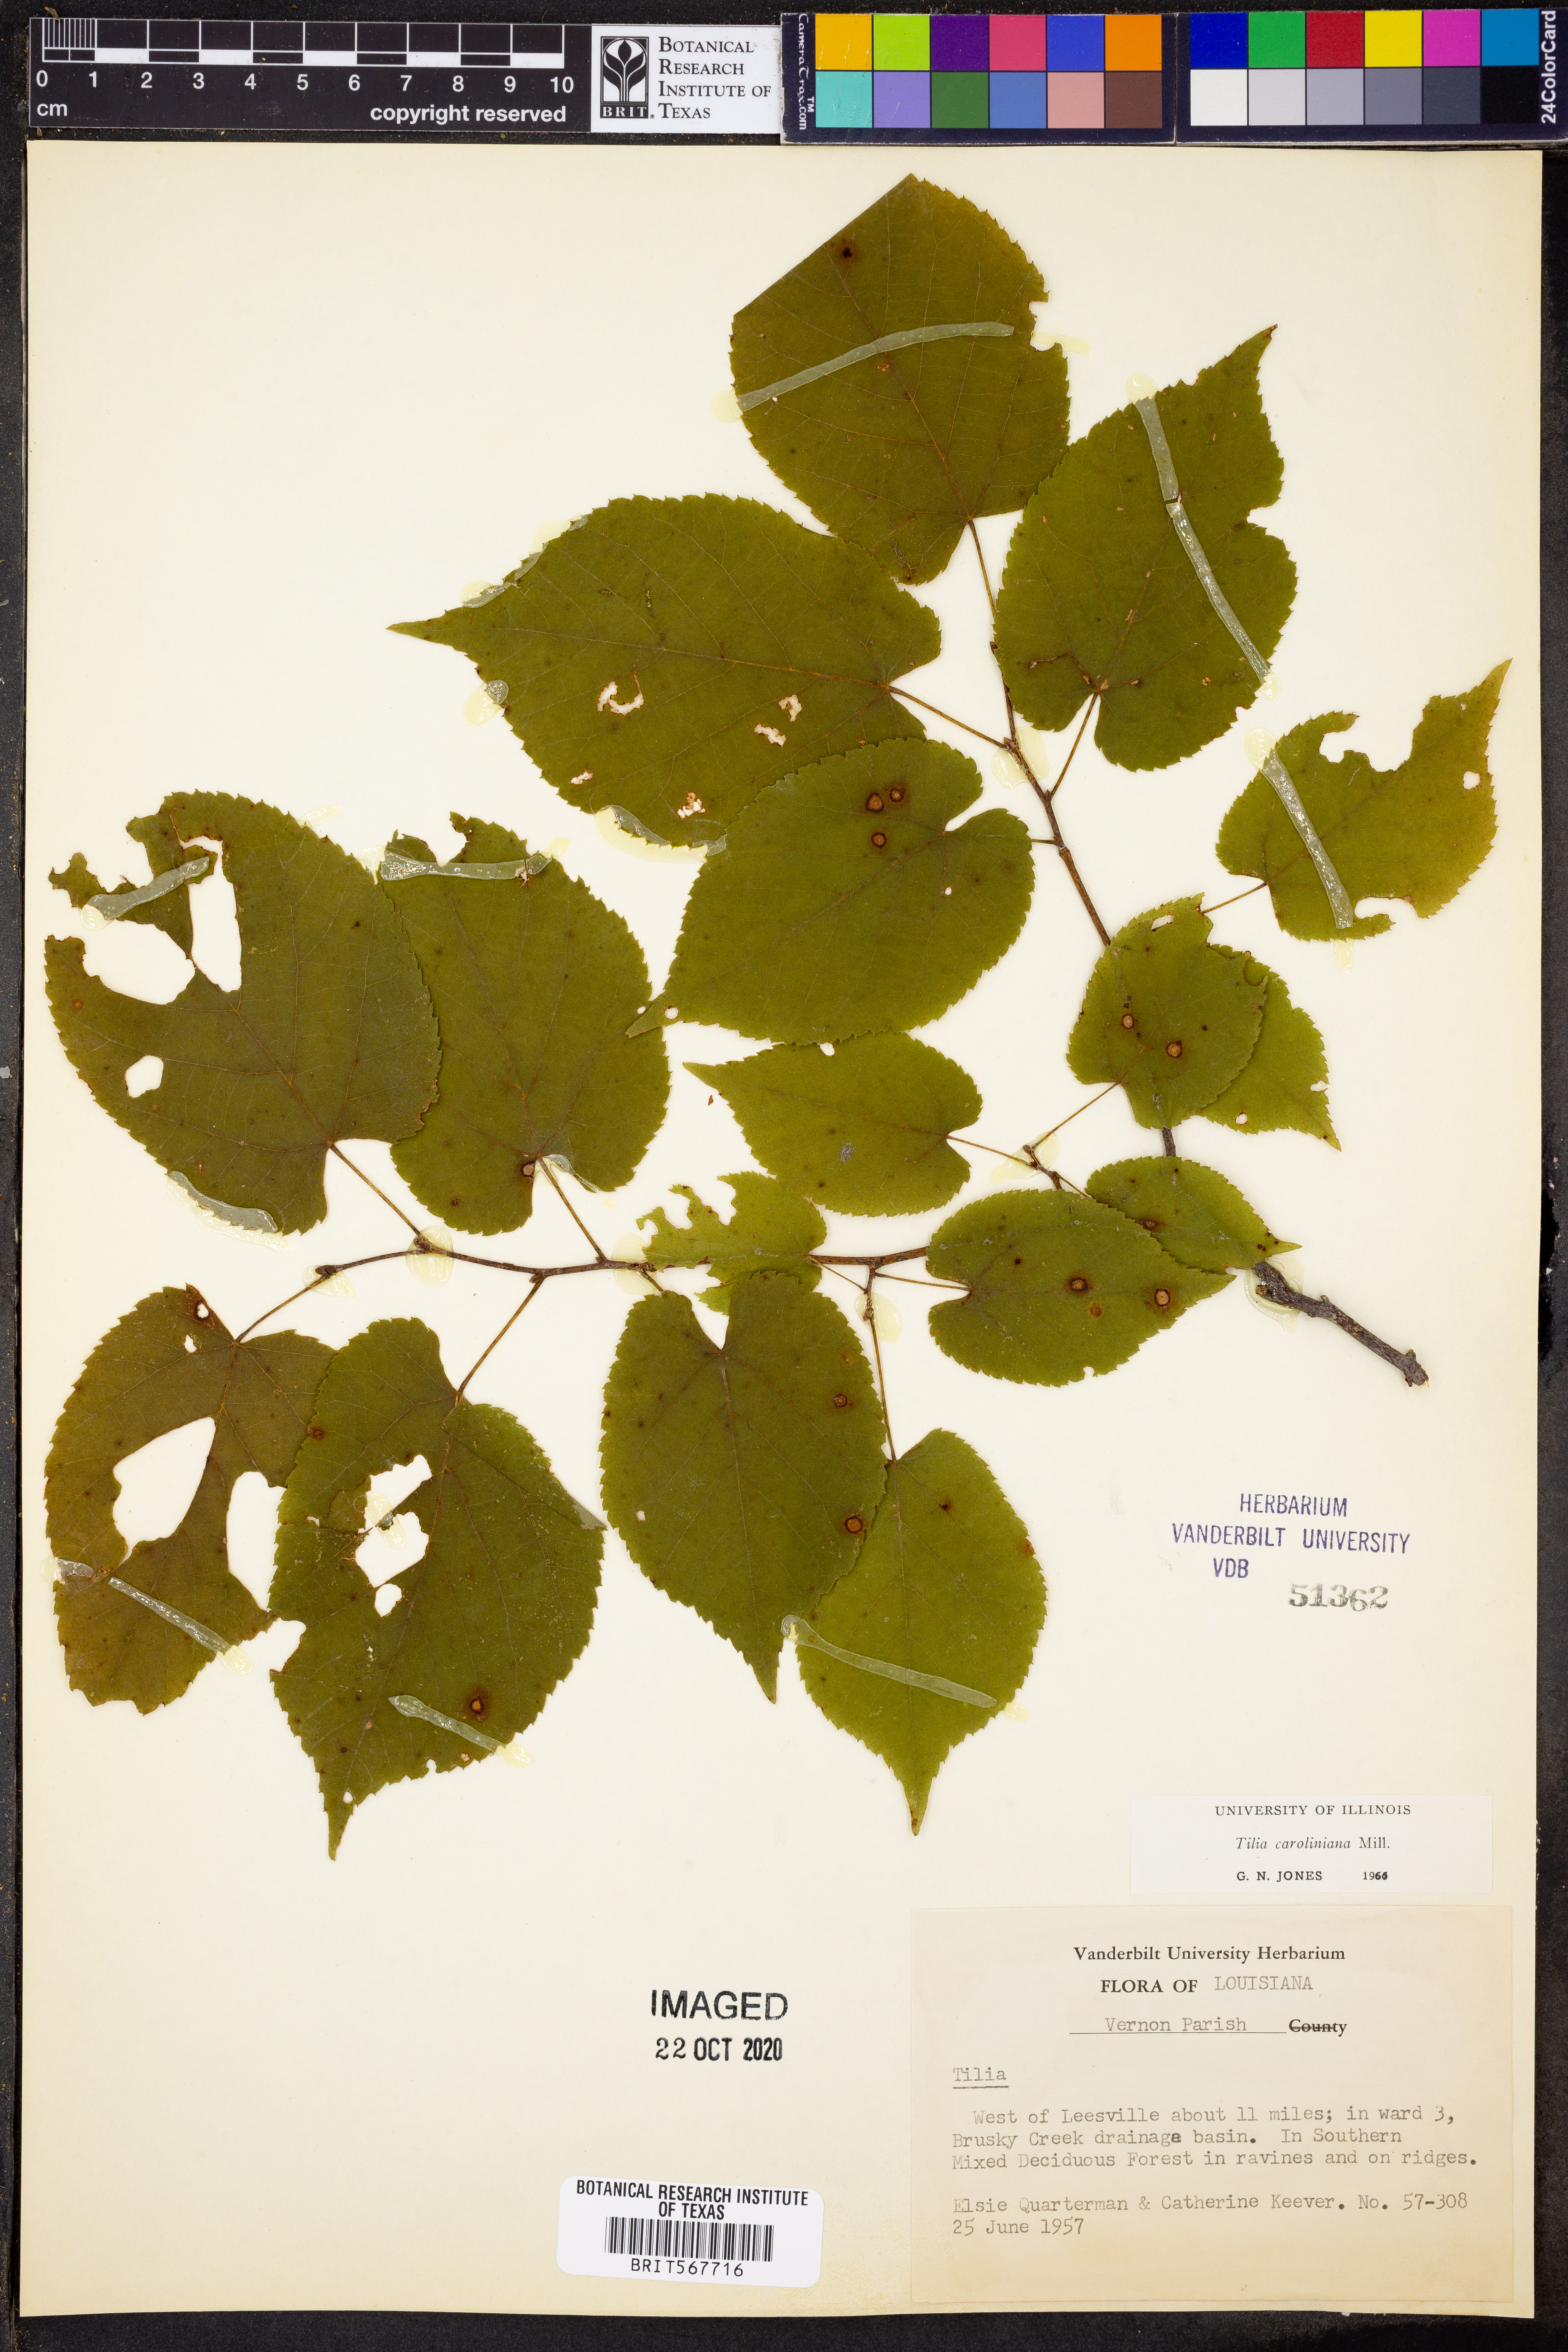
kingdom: Plantae
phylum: Tracheophyta
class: Magnoliopsida
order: Malvales
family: Malvaceae
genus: Tilia
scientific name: Tilia americana
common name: Basswood
